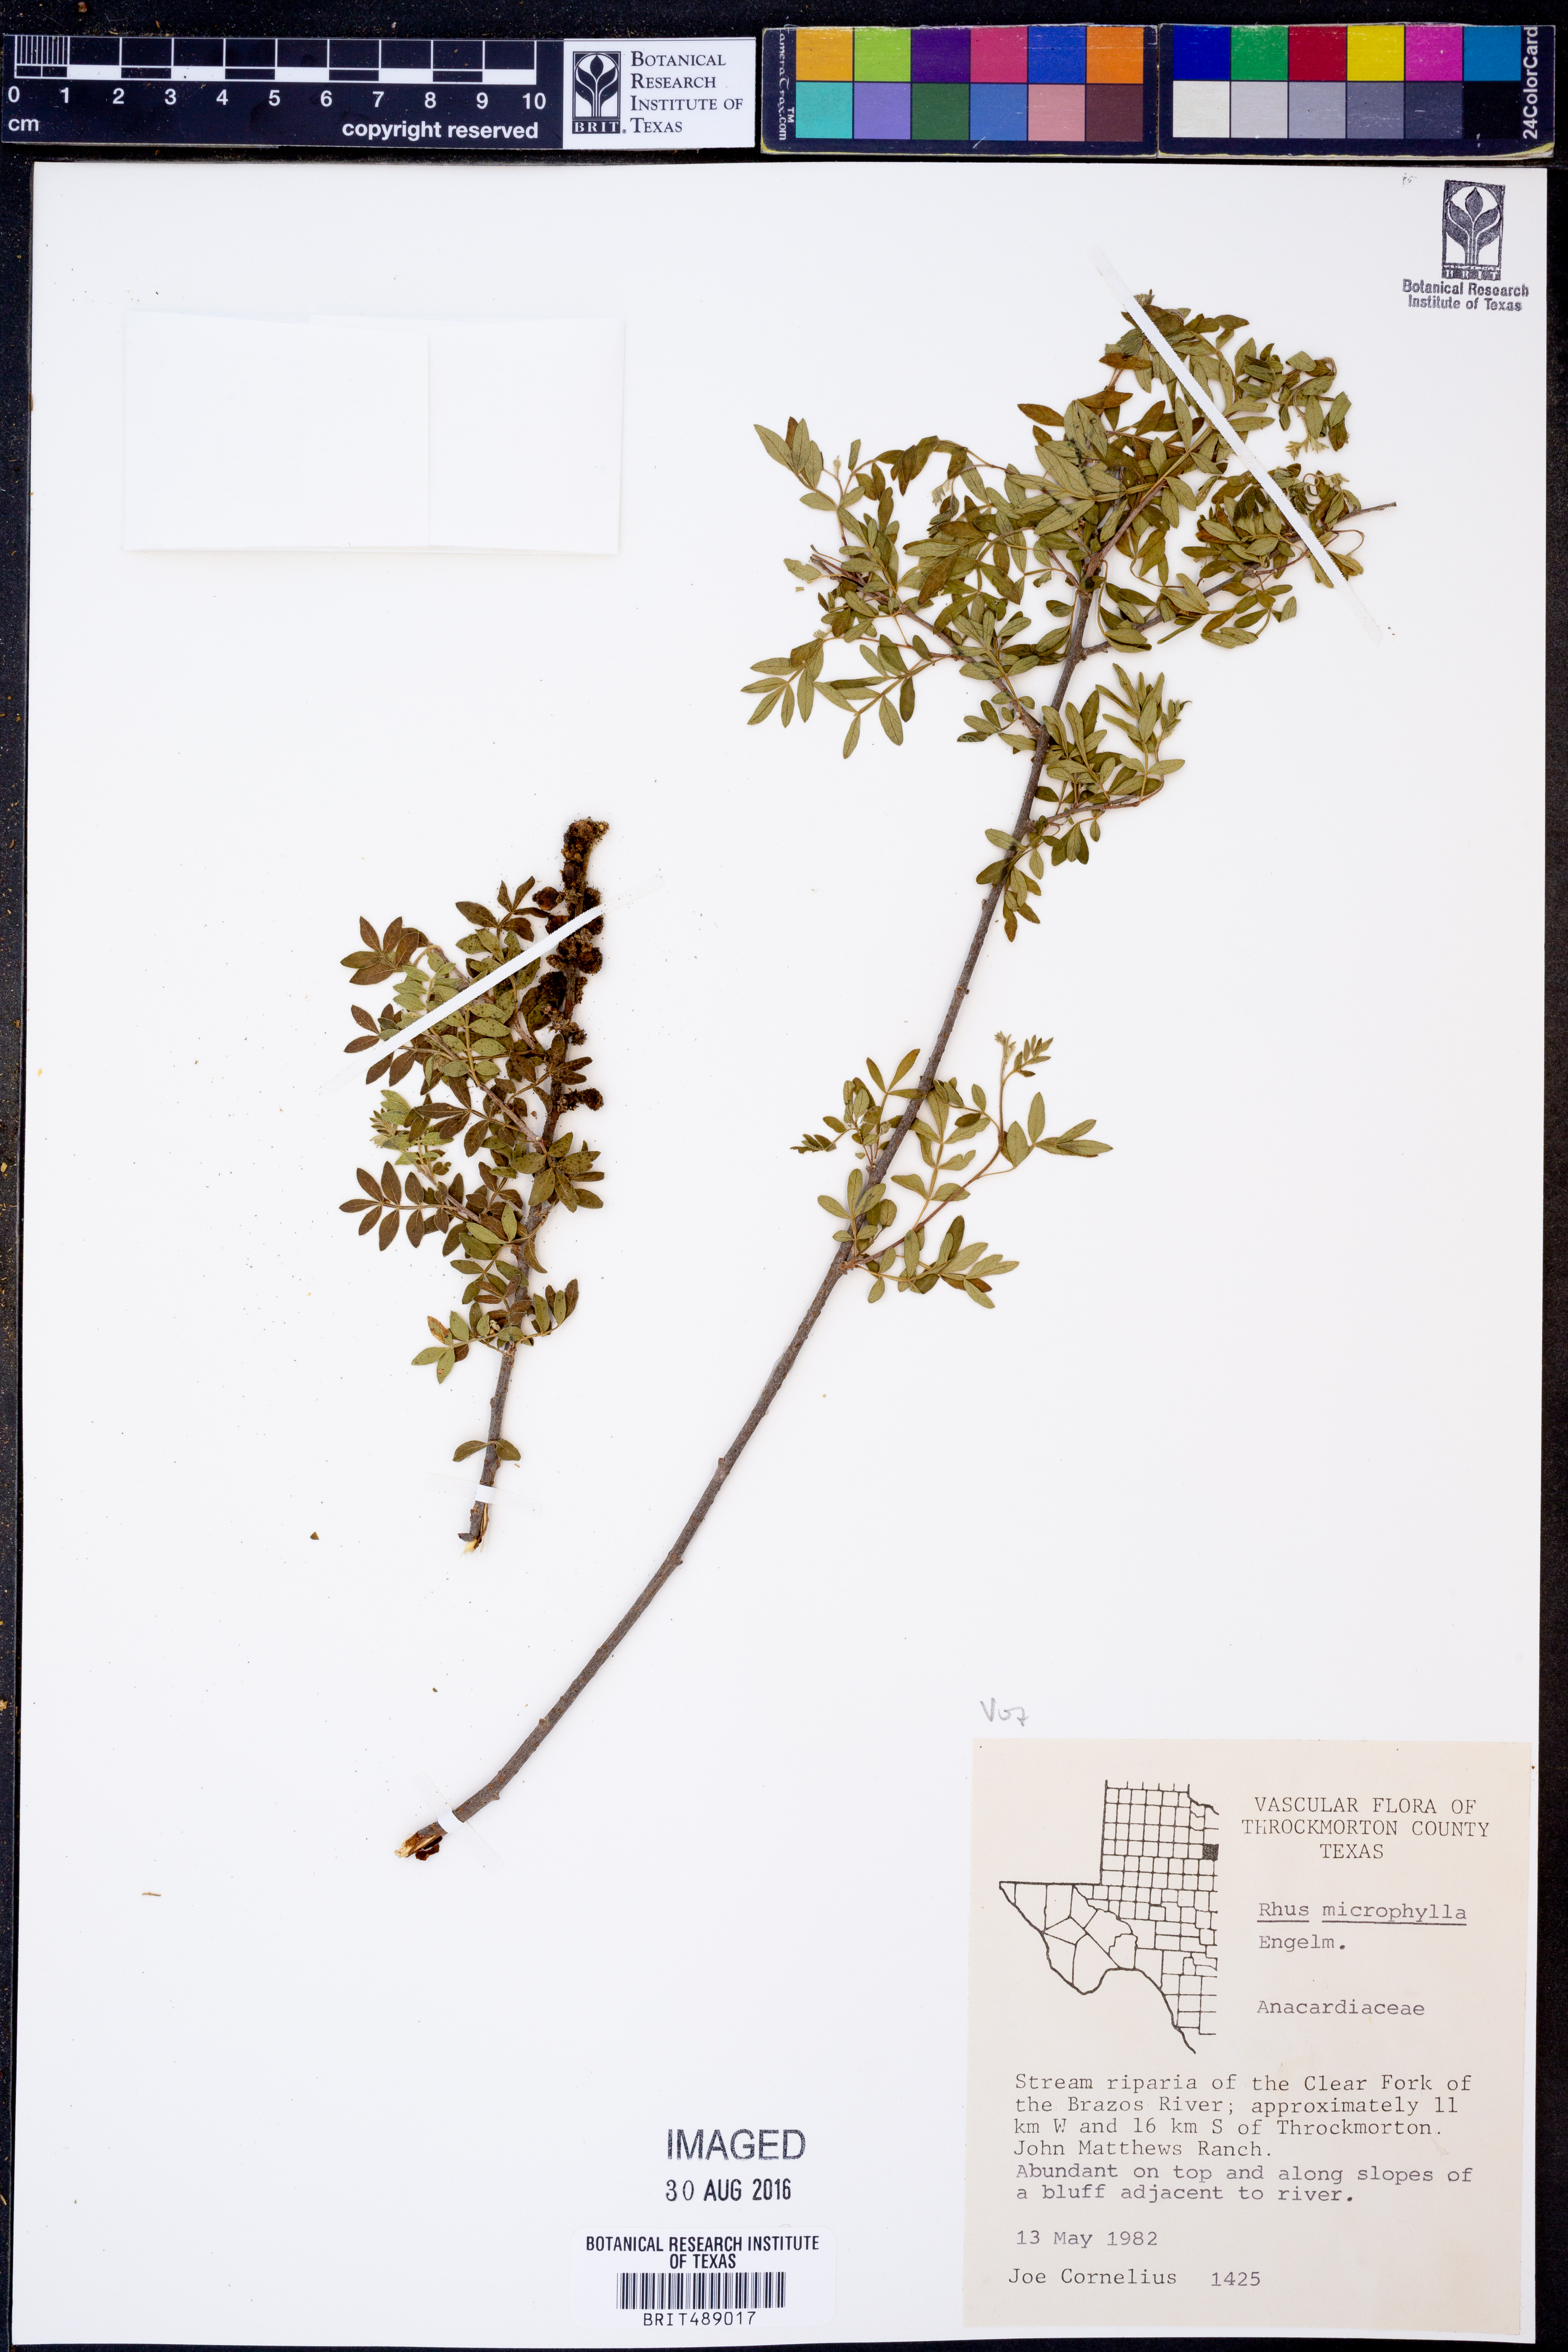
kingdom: Plantae
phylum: Tracheophyta
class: Magnoliopsida
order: Sapindales
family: Anacardiaceae
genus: Rhus
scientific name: Rhus microphylla
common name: Desert sumac
